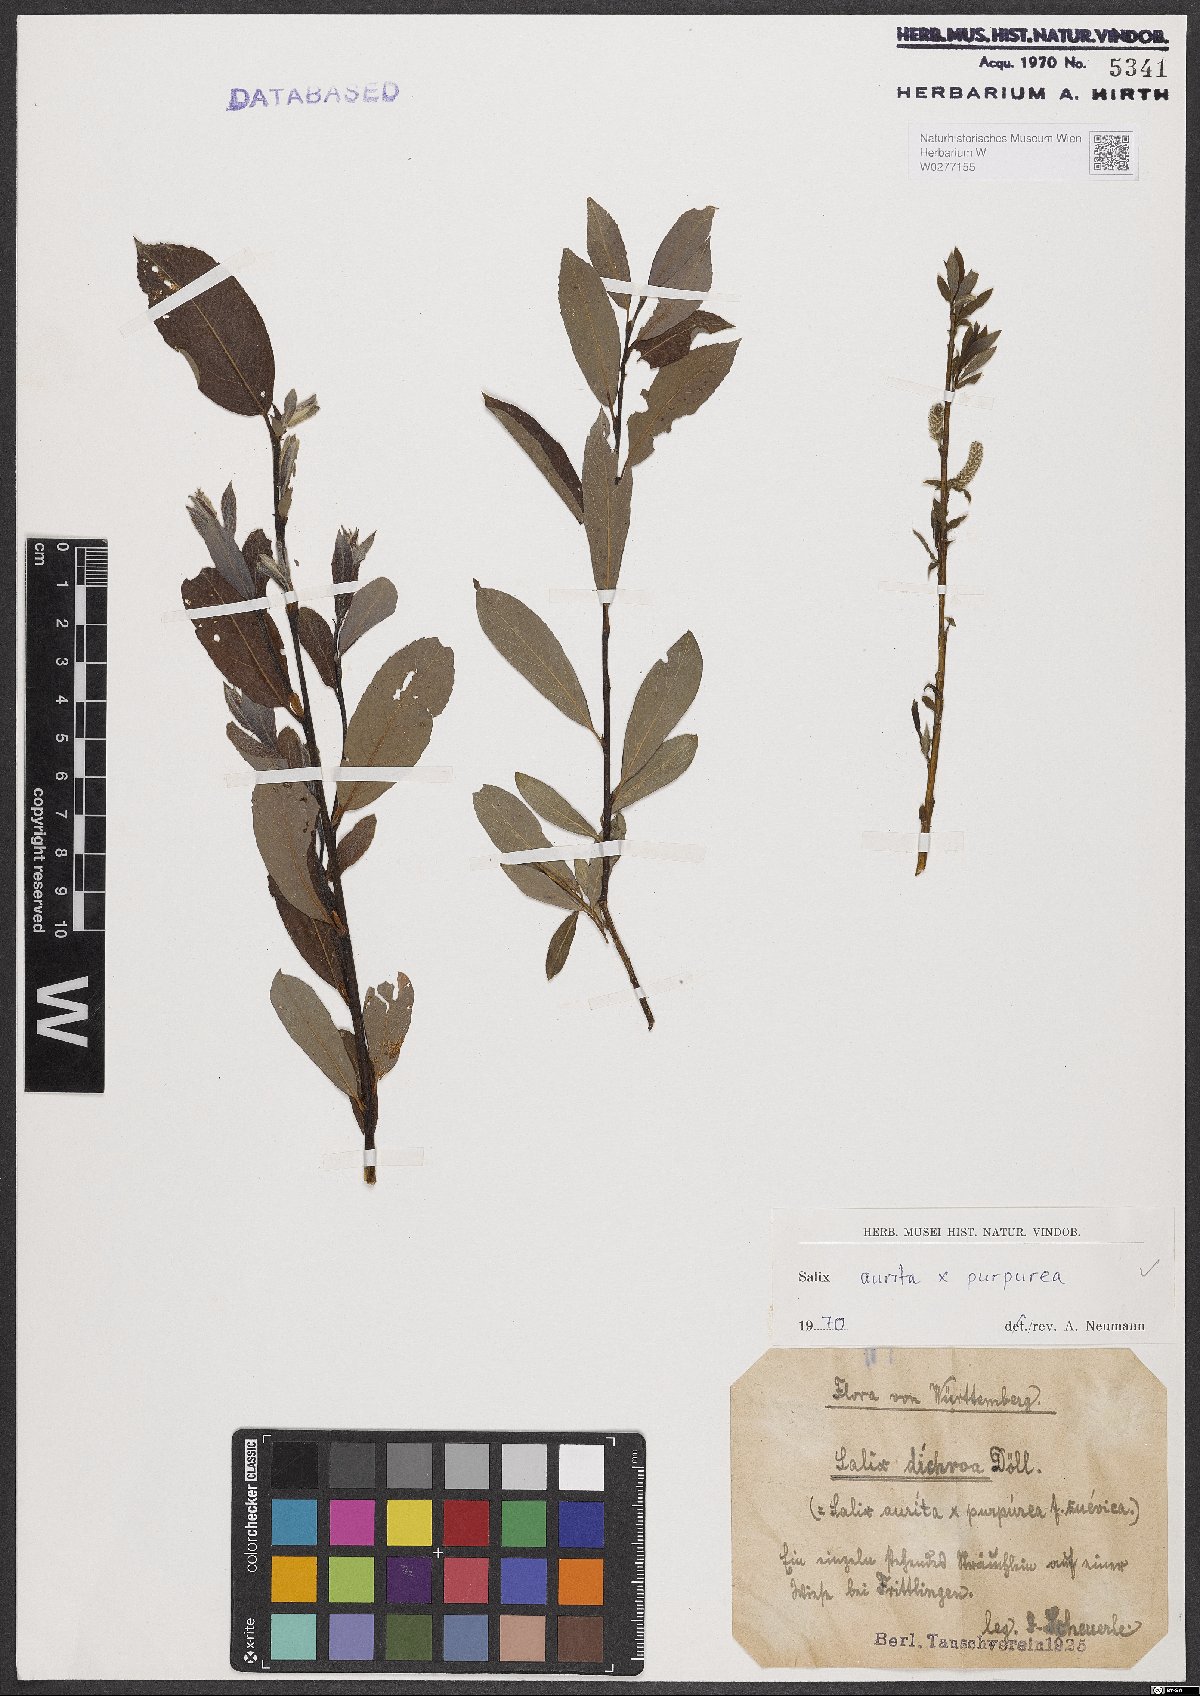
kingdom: Plantae
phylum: Tracheophyta
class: Magnoliopsida
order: Malpighiales
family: Salicaceae
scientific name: Salicaceae
